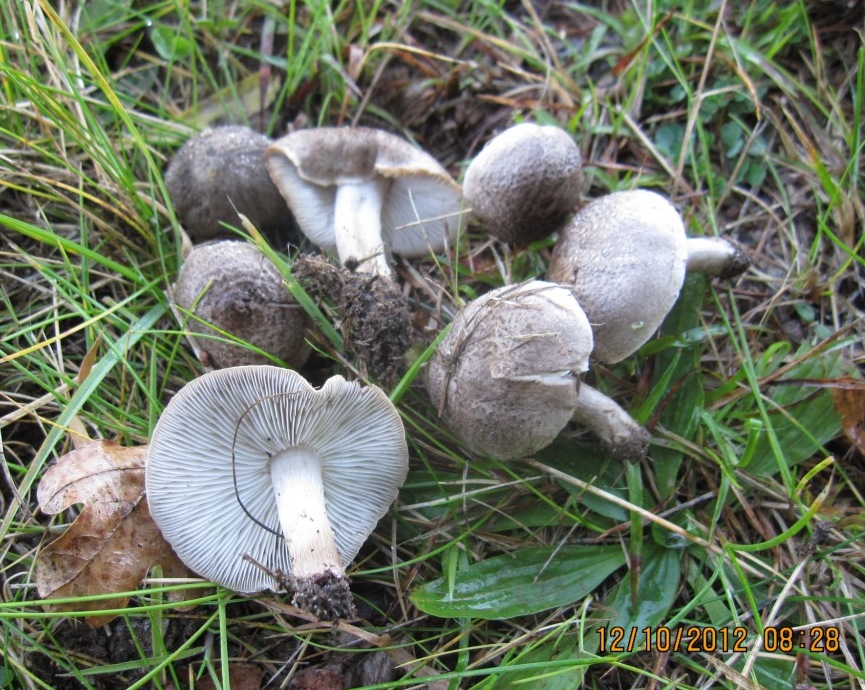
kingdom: Fungi
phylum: Basidiomycota
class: Agaricomycetes
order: Agaricales
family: Tricholomataceae
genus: Tricholoma
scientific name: Tricholoma argyraceum
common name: slør-ridderhat
